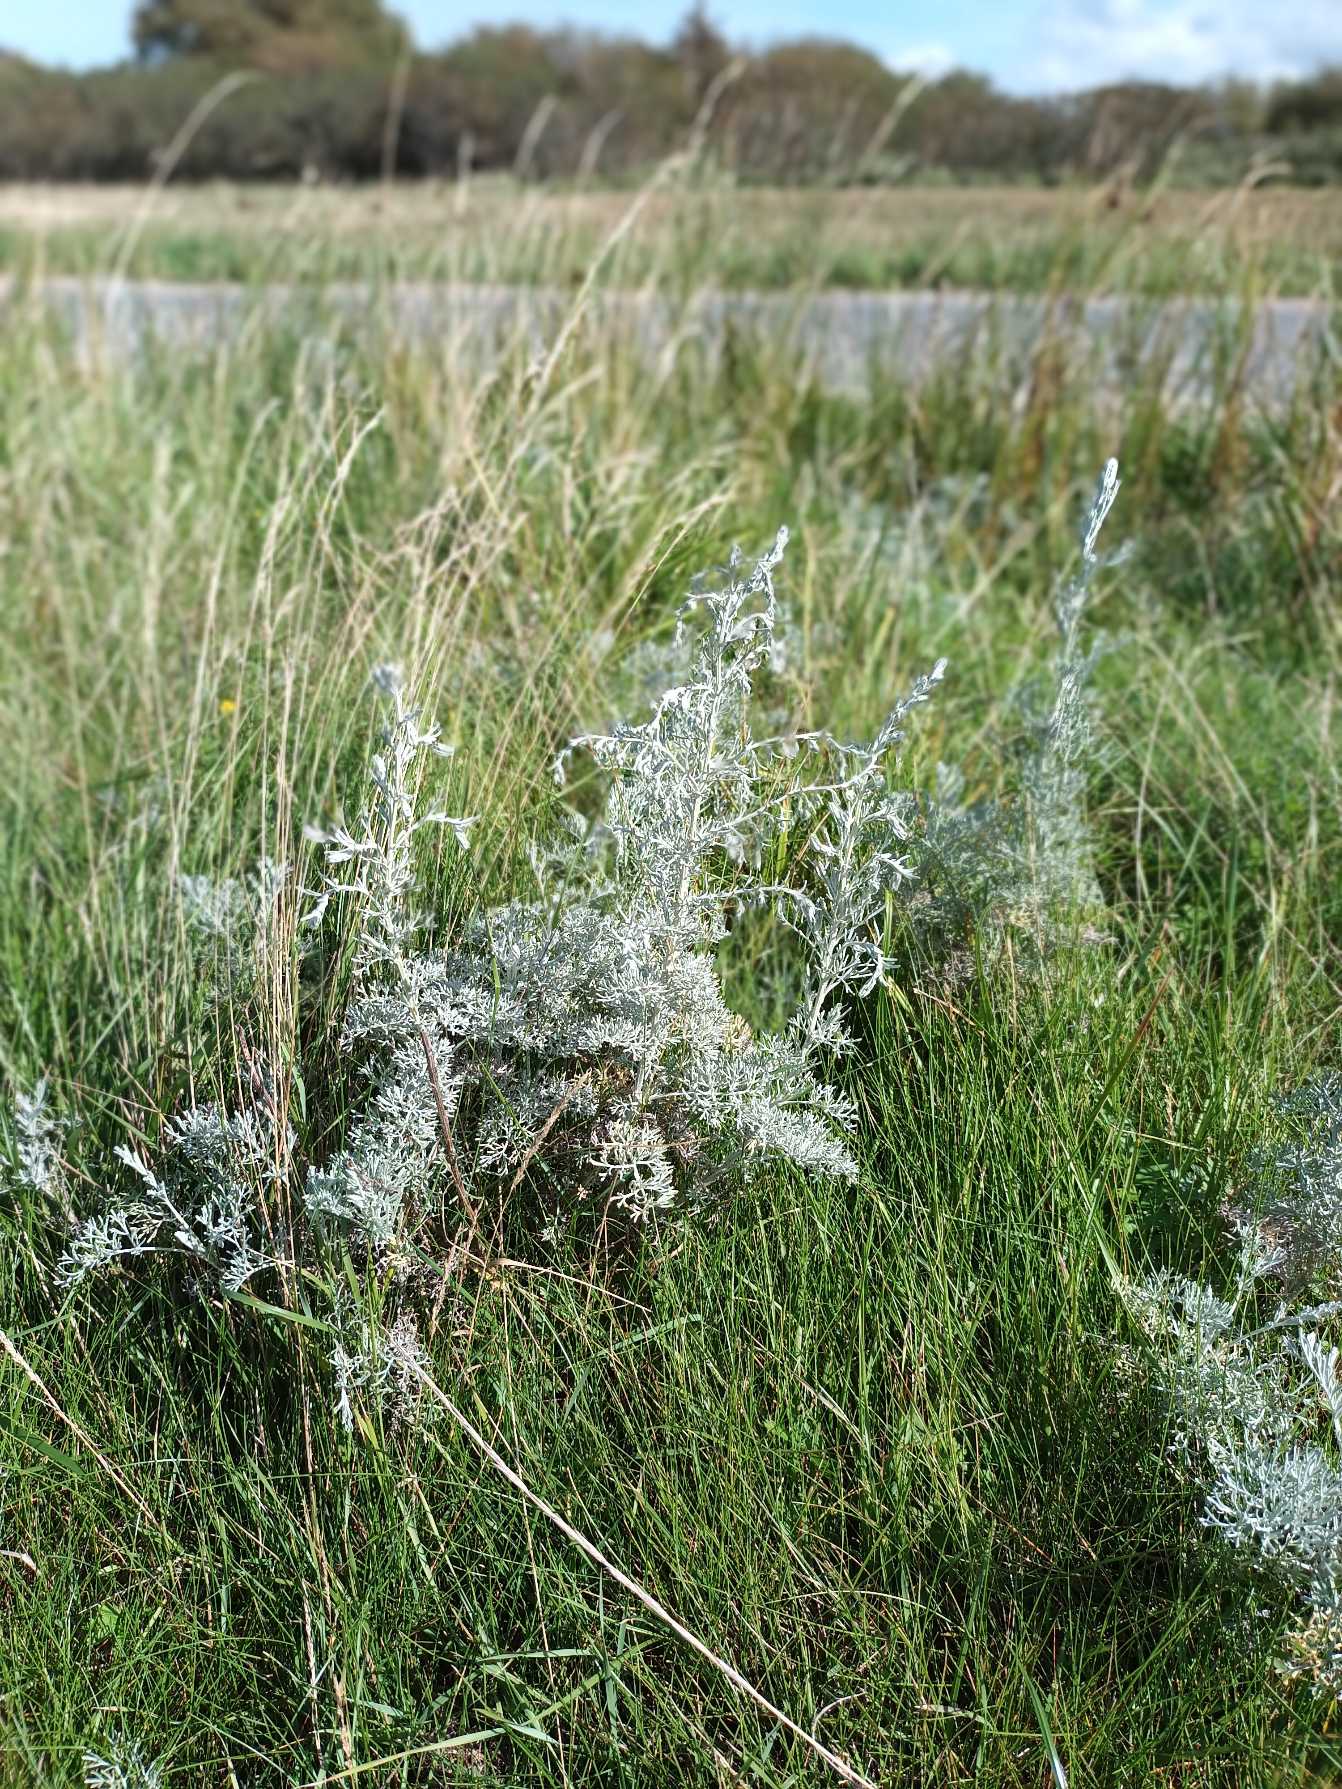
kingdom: Plantae
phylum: Tracheophyta
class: Magnoliopsida
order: Asterales
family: Asteraceae
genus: Artemisia
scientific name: Artemisia maritima
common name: Strandmalurt
